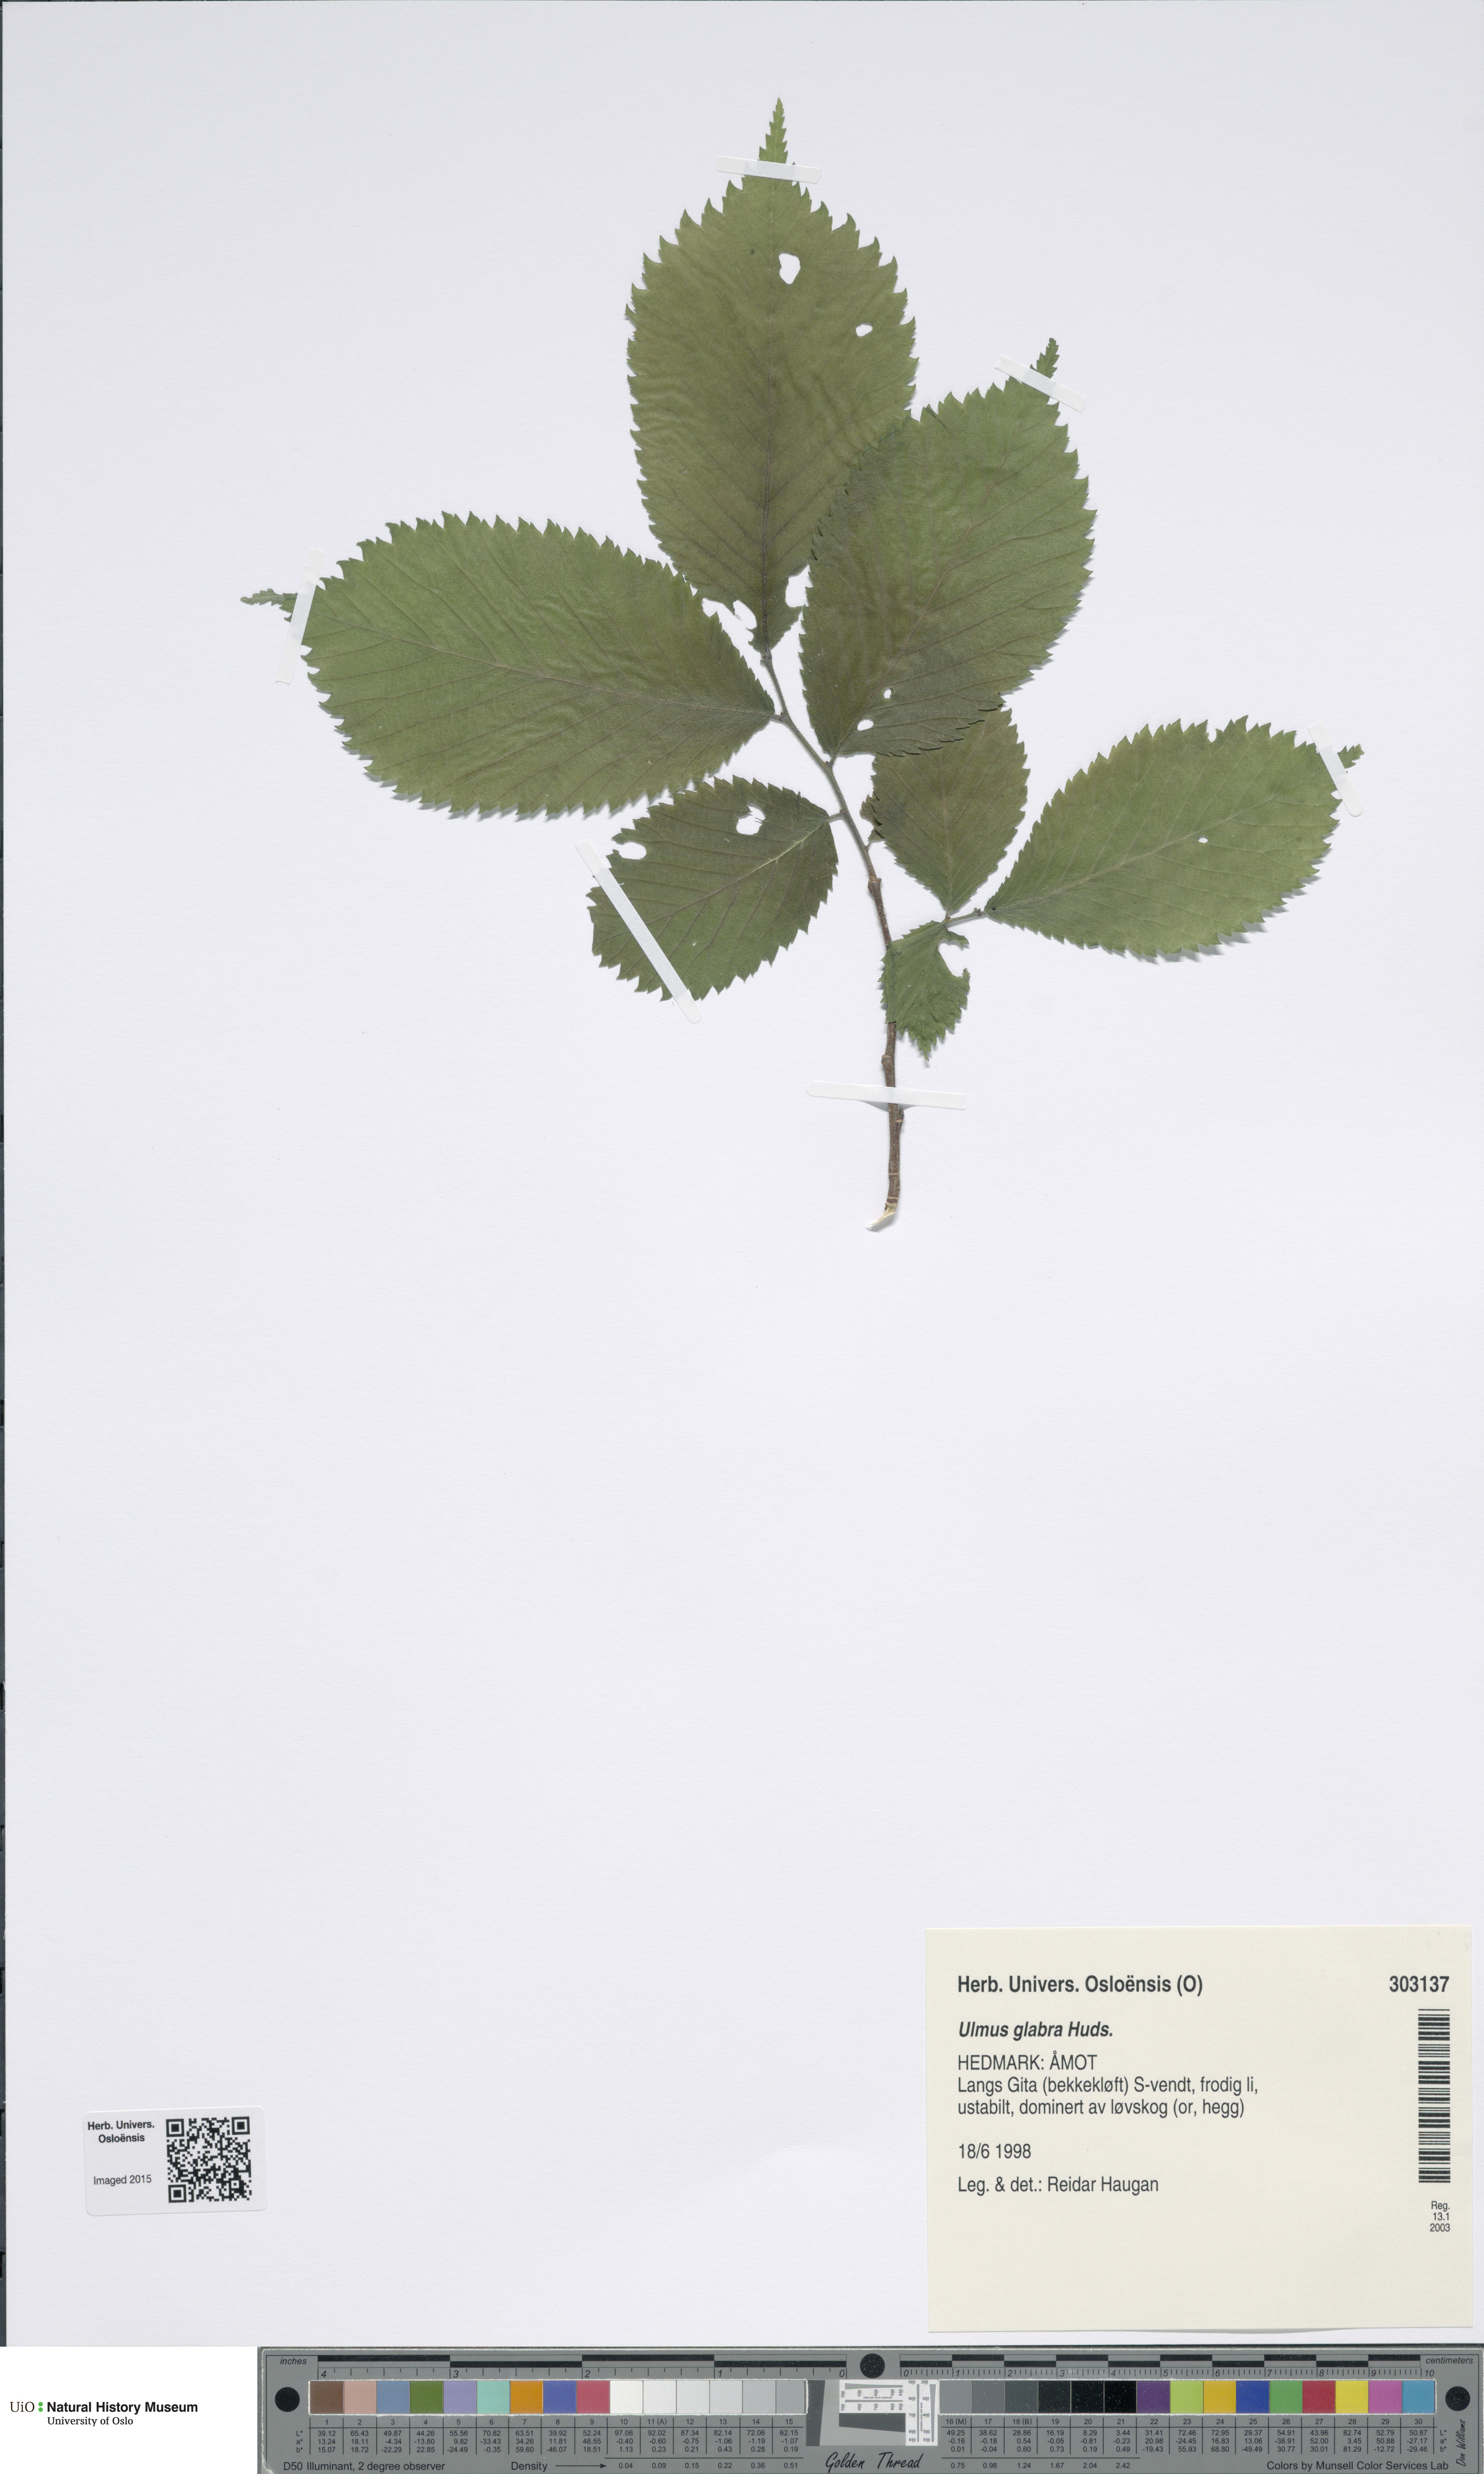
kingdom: Plantae
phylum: Tracheophyta
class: Magnoliopsida
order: Rosales
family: Ulmaceae
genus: Ulmus
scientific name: Ulmus glabra
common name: Wych elm
